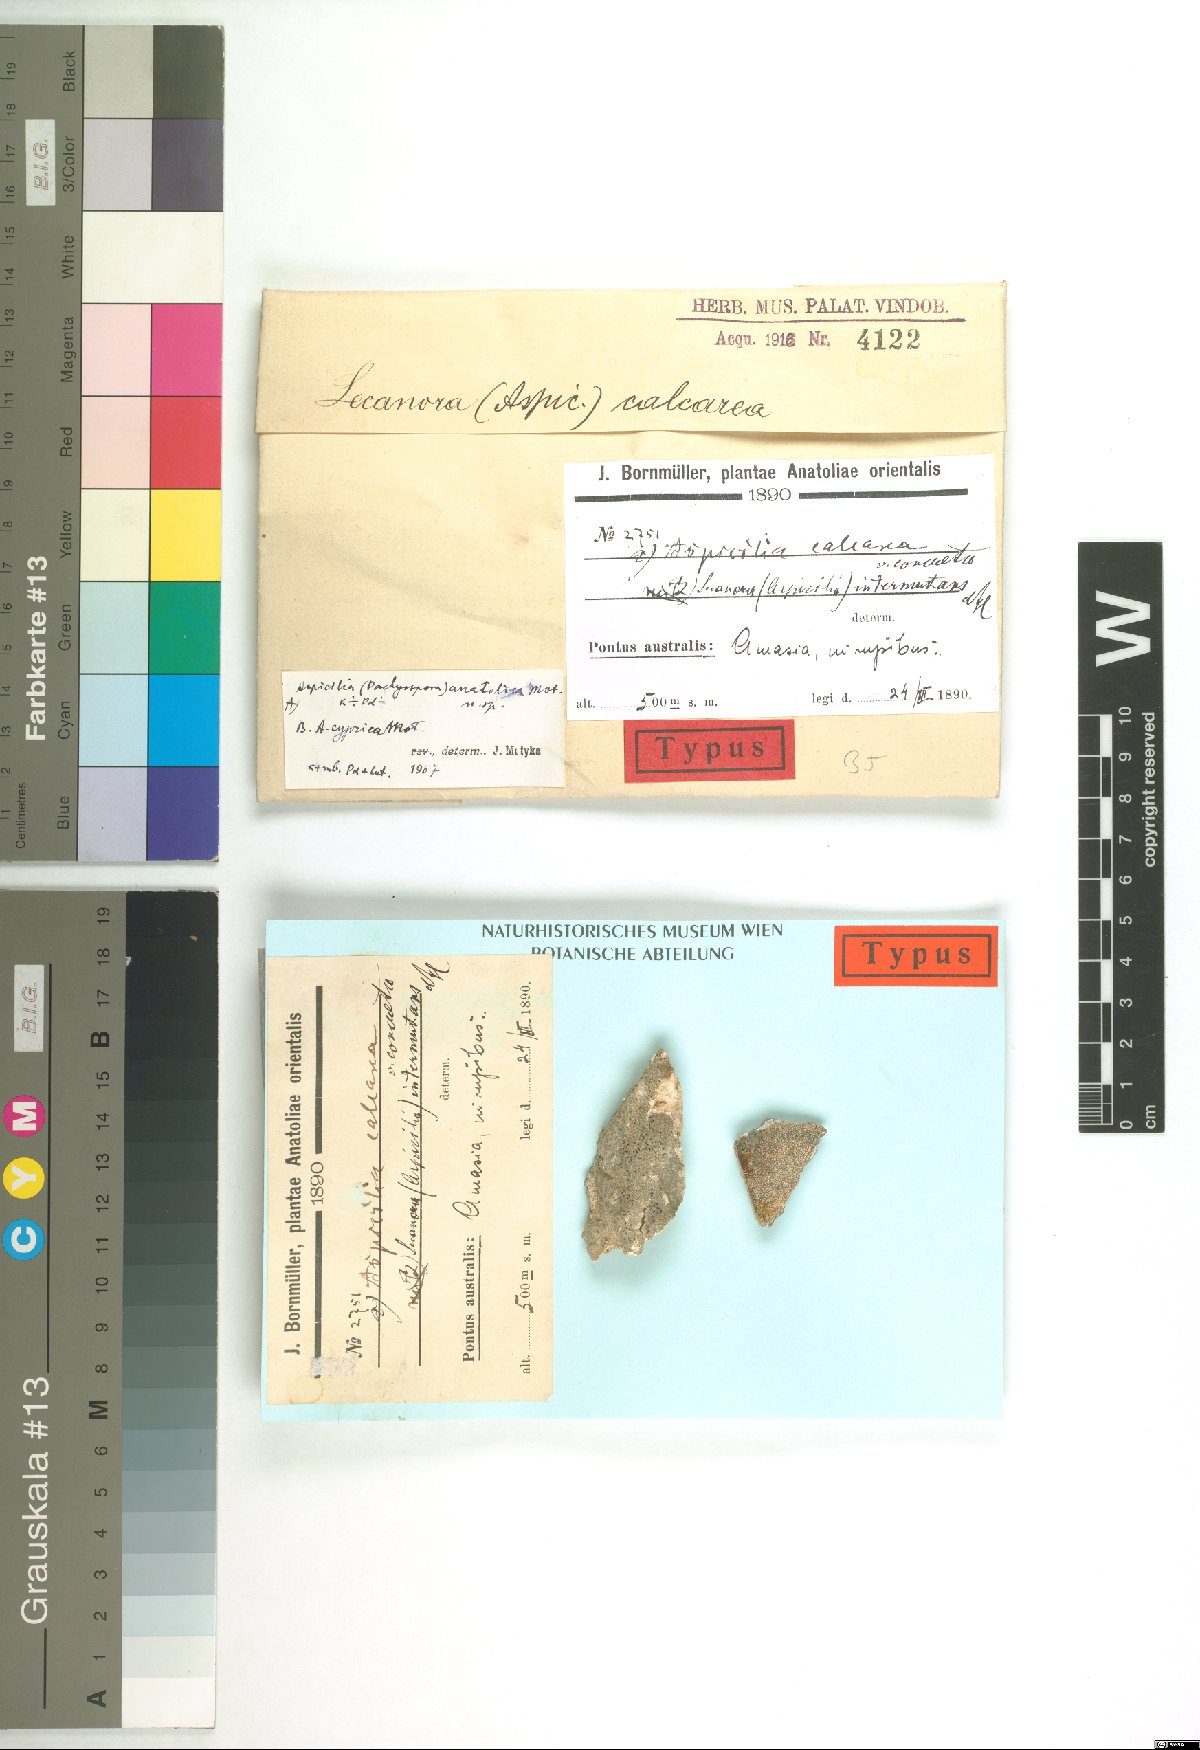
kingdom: Fungi
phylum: Ascomycota
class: Lecanoromycetes
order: Hymeneliales
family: Hymeneliaceae
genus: Aspicilia
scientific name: Aspicilia
